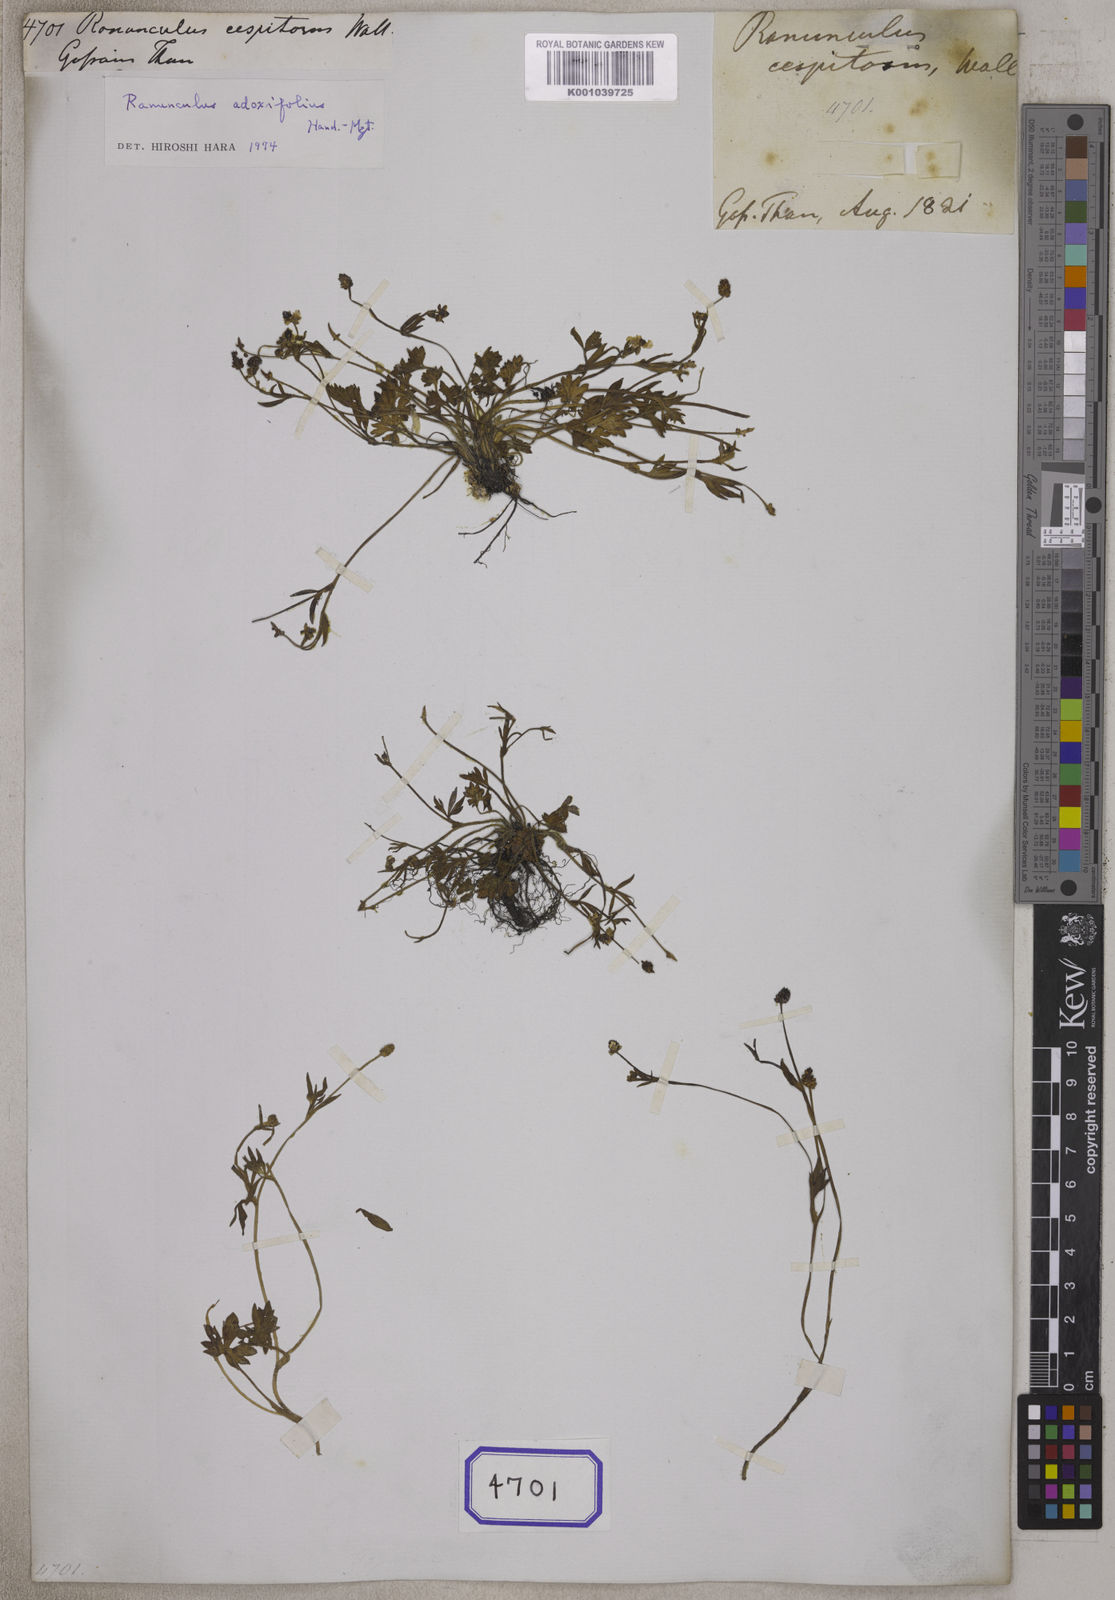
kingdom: Plantae
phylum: Tracheophyta
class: Magnoliopsida
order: Ranunculales
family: Ranunculaceae
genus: Ranunculus
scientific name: Ranunculus
